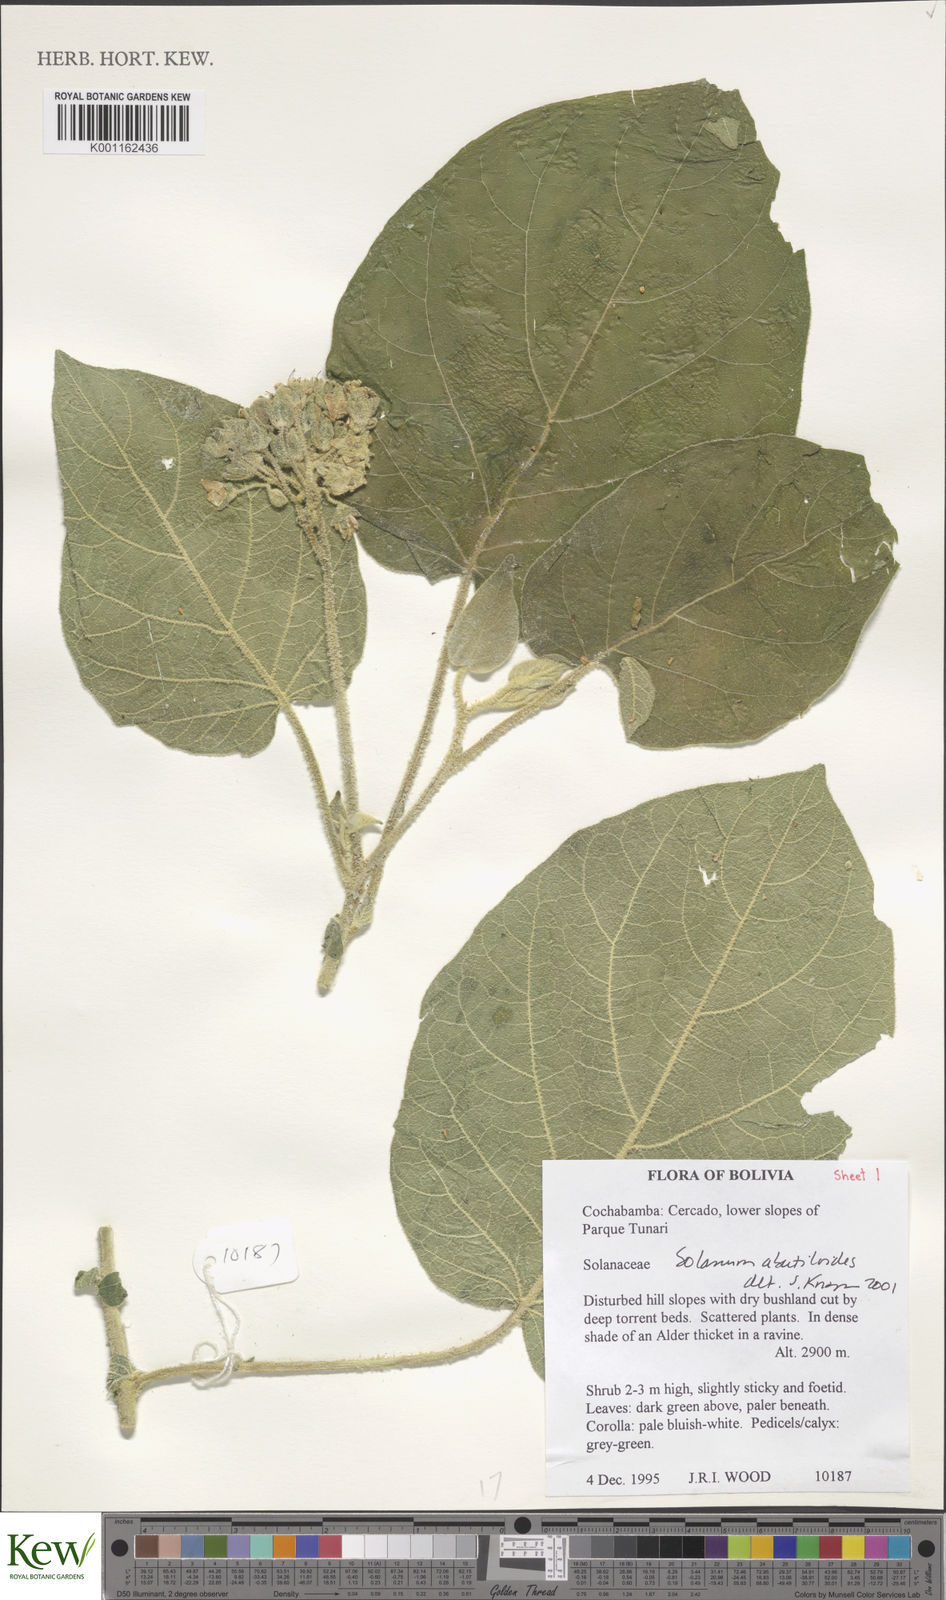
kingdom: Plantae
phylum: Tracheophyta
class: Magnoliopsida
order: Solanales
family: Solanaceae
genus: Solanum
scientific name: Solanum abutiloides
